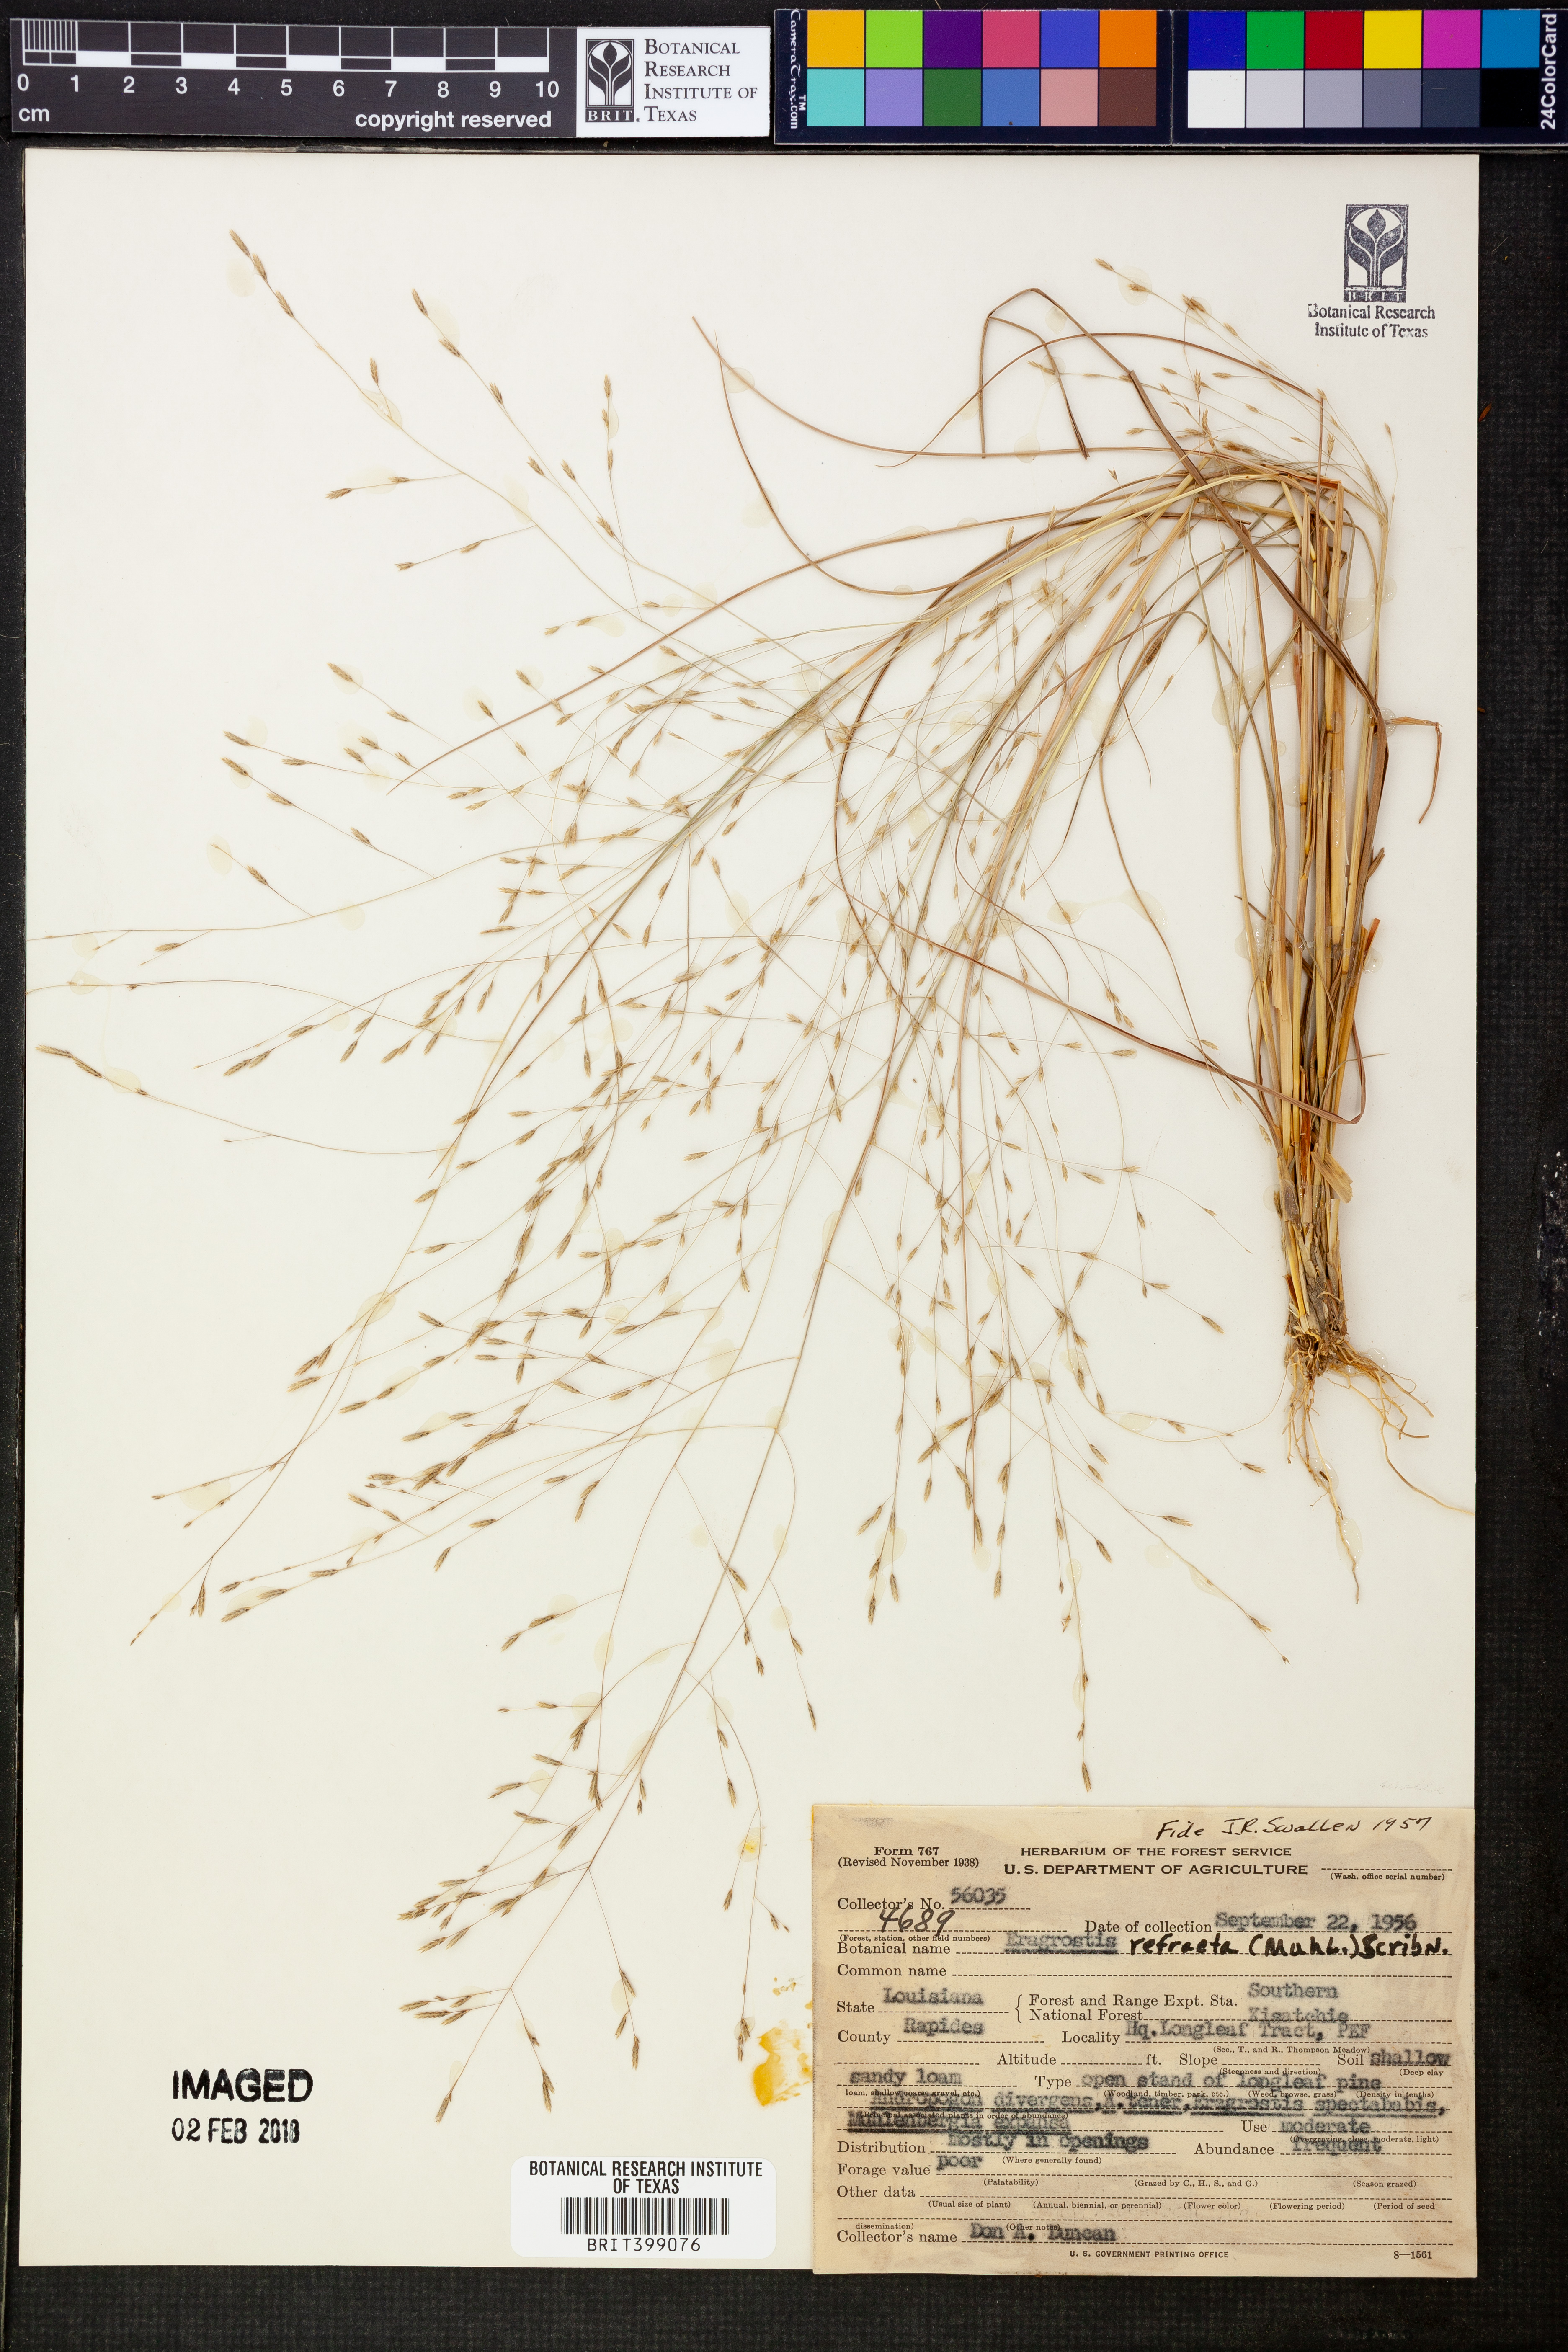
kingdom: Plantae
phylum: Tracheophyta
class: Liliopsida
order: Poales
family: Poaceae
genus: Eragrostis
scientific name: Eragrostis refracta
